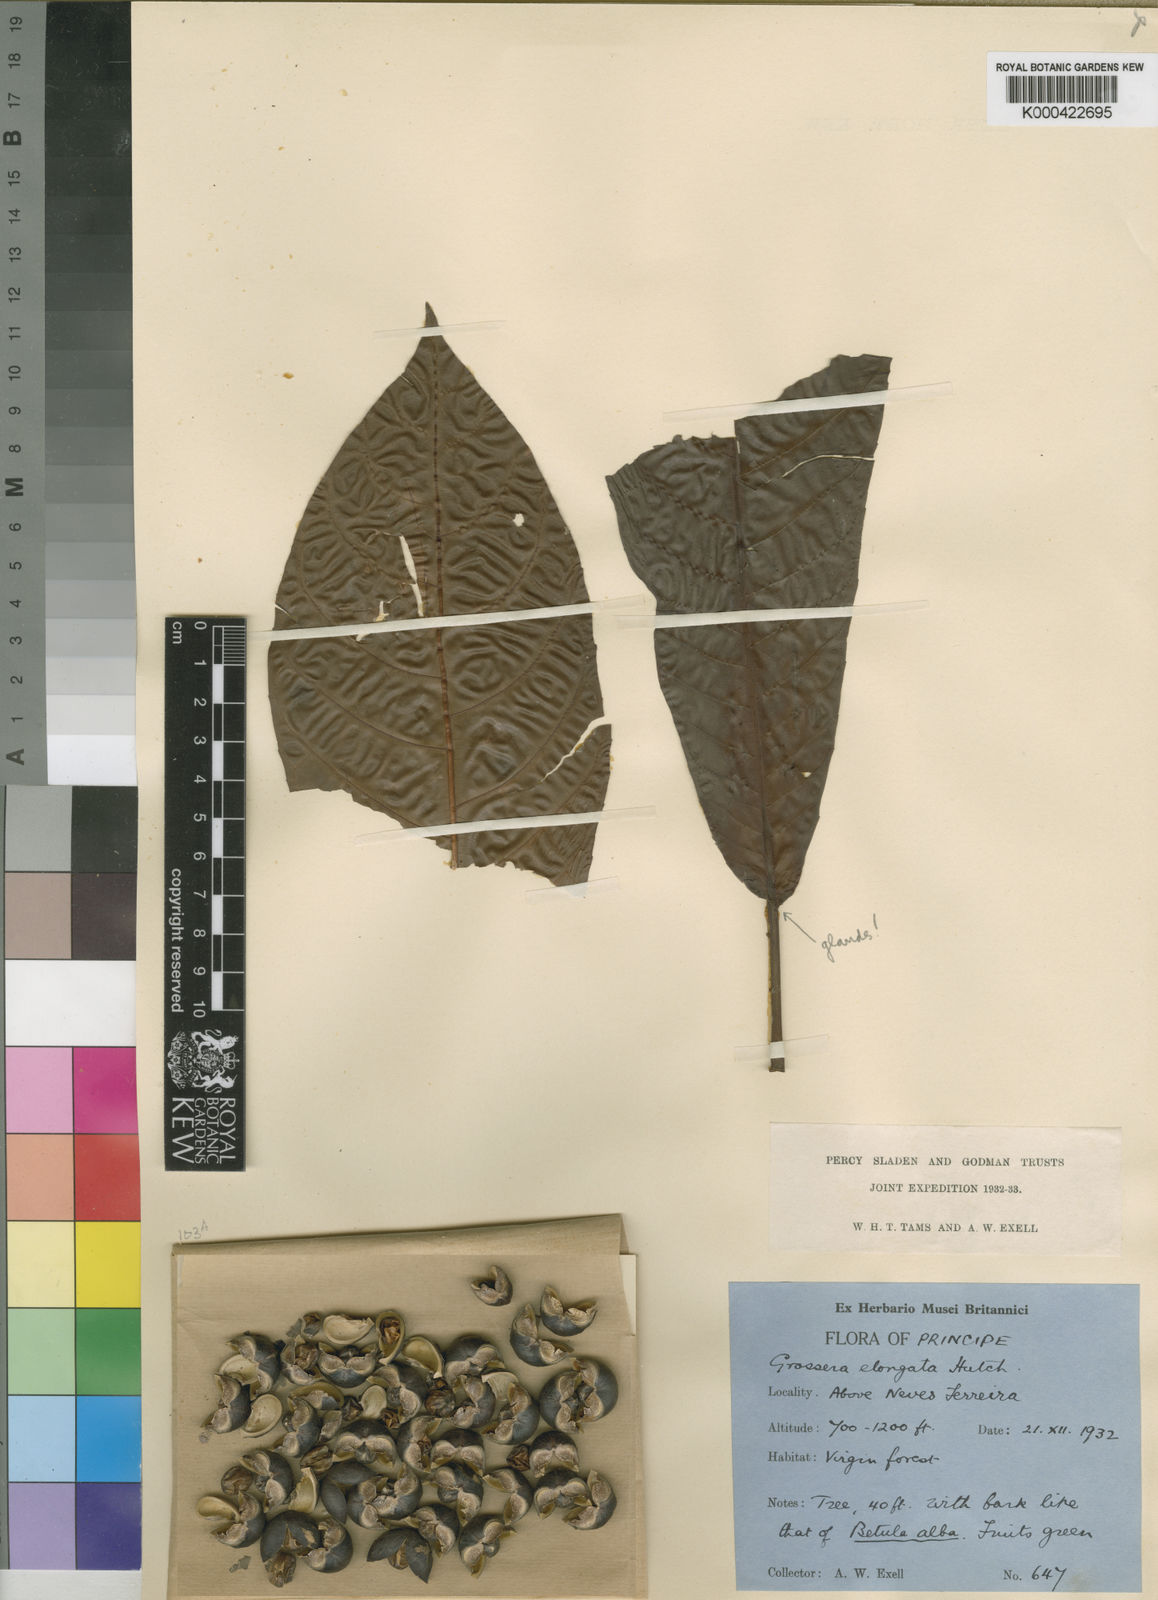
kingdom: Plantae
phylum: Tracheophyta
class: Magnoliopsida
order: Malpighiales
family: Euphorbiaceae
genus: Grossera
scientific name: Grossera elongata
